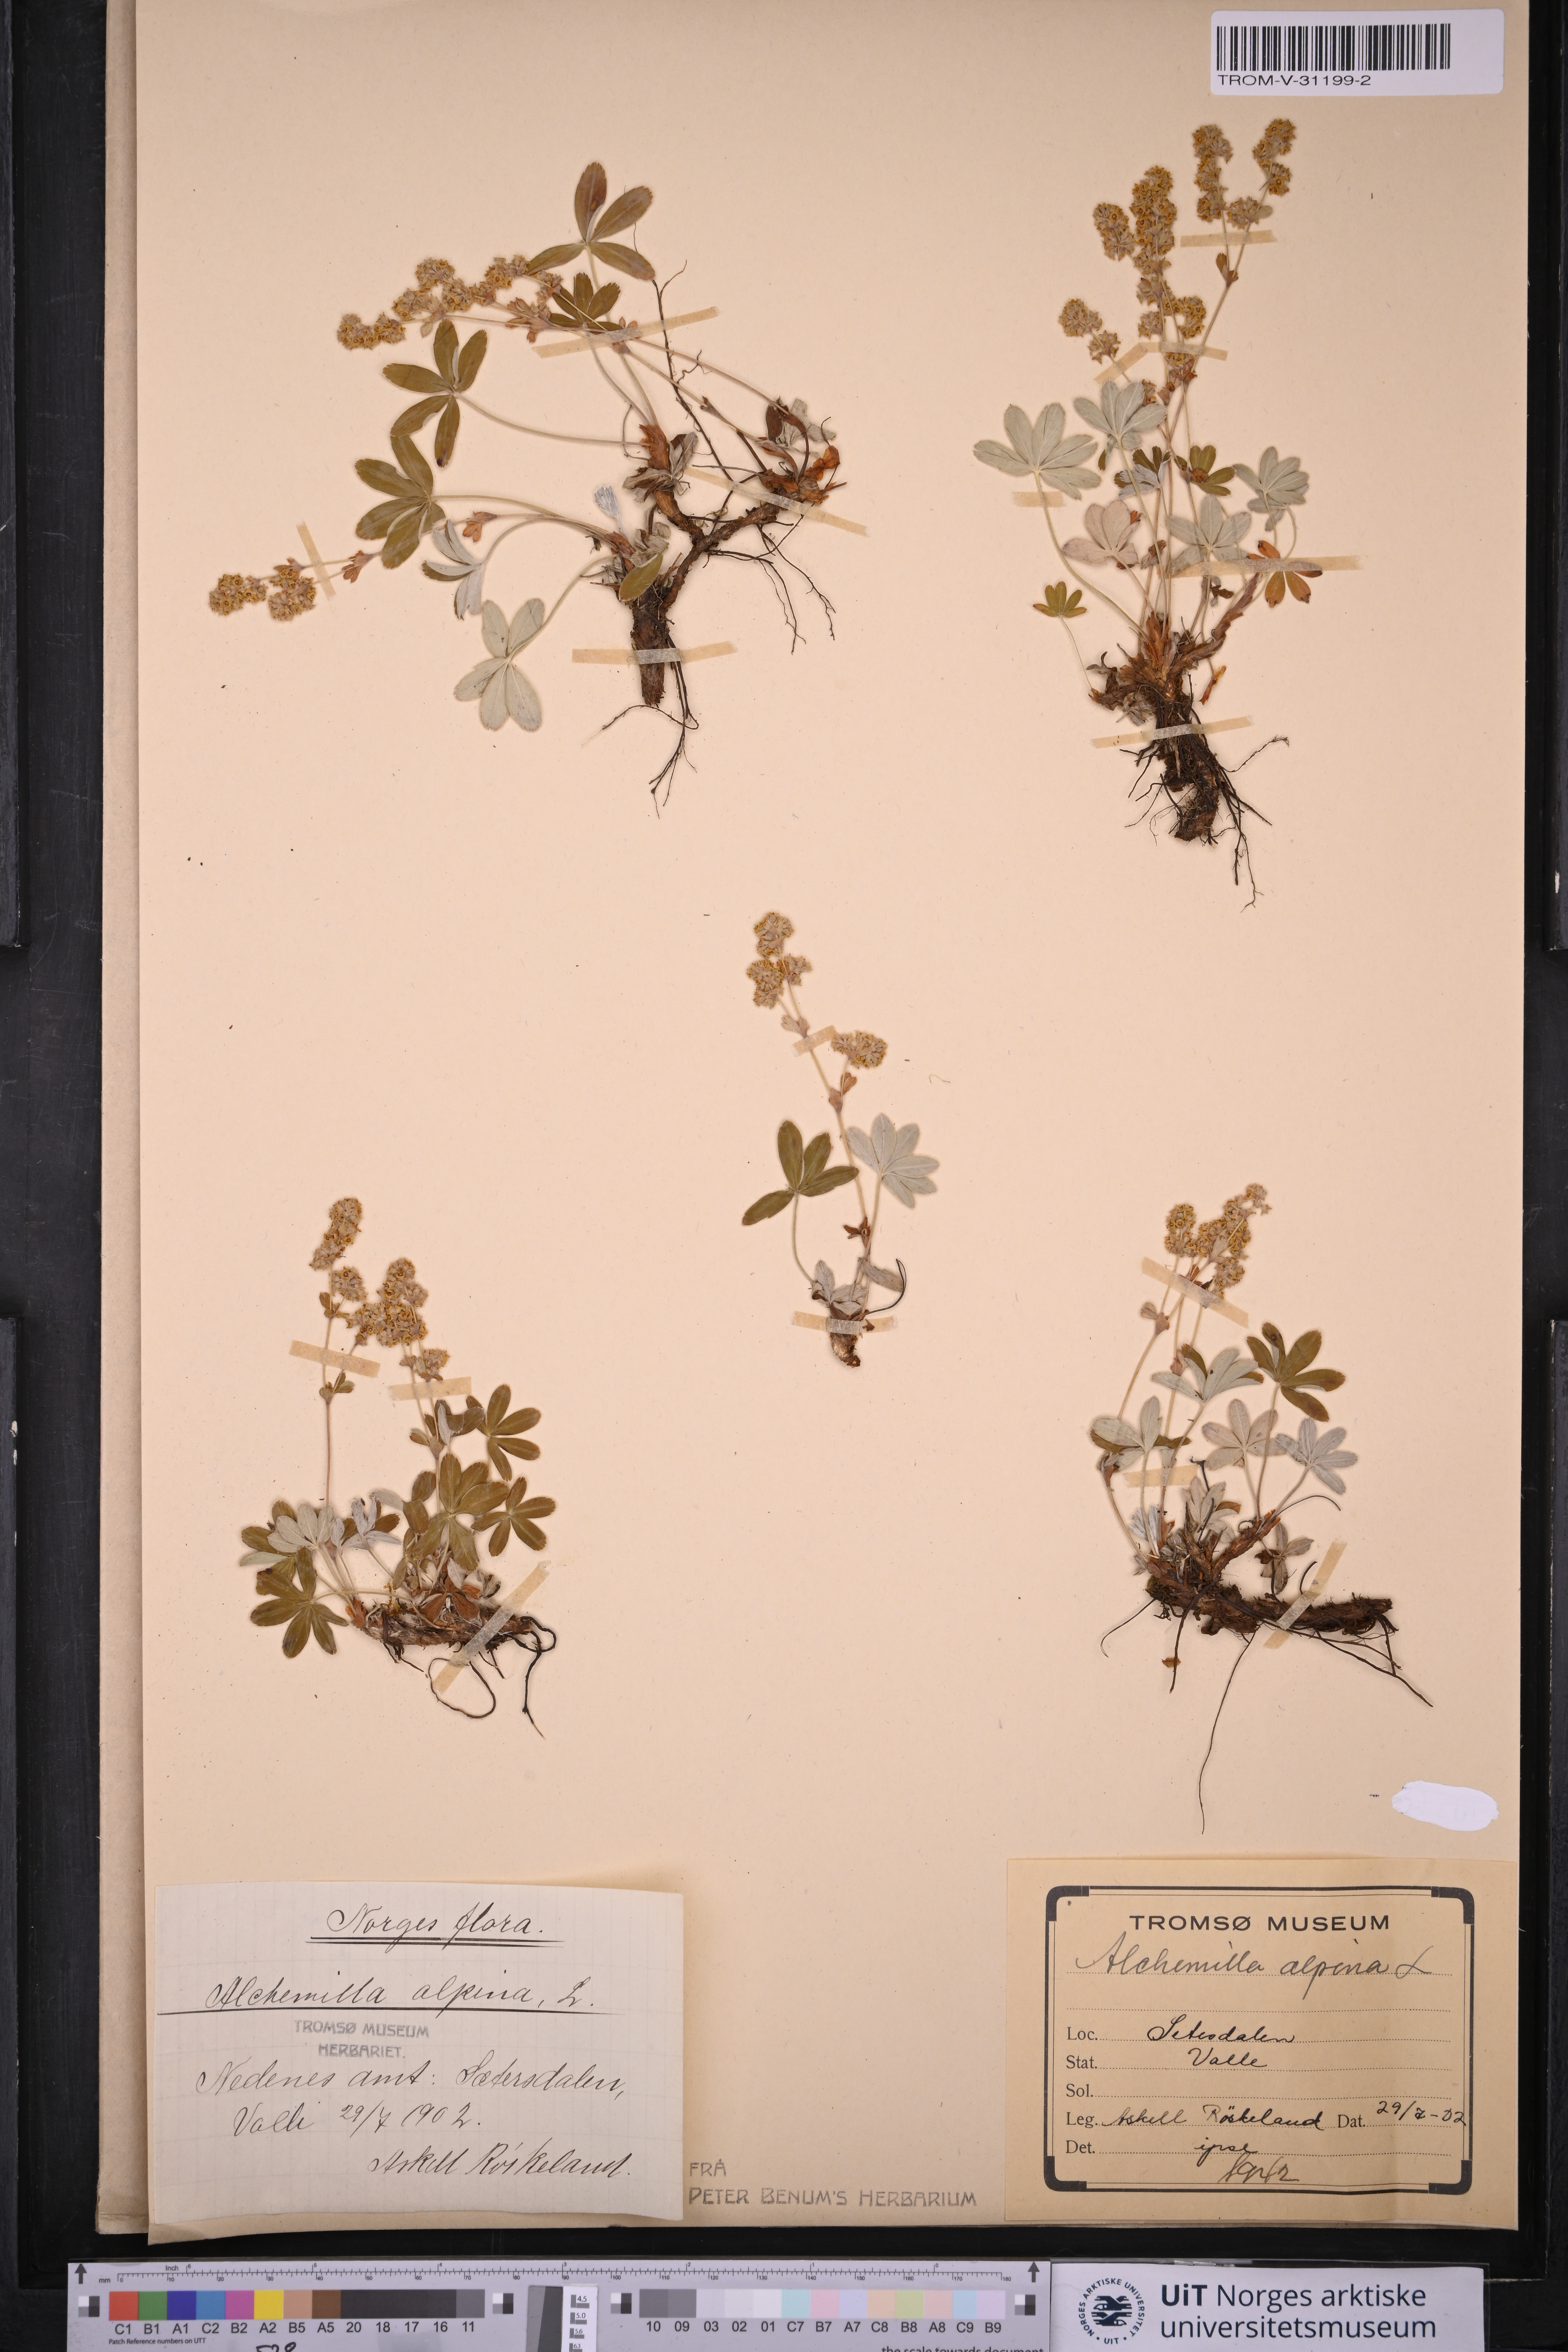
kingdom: Plantae
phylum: Tracheophyta
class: Magnoliopsida
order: Rosales
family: Rosaceae
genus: Alchemilla
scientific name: Alchemilla alpina
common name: Alpine lady's-mantle
